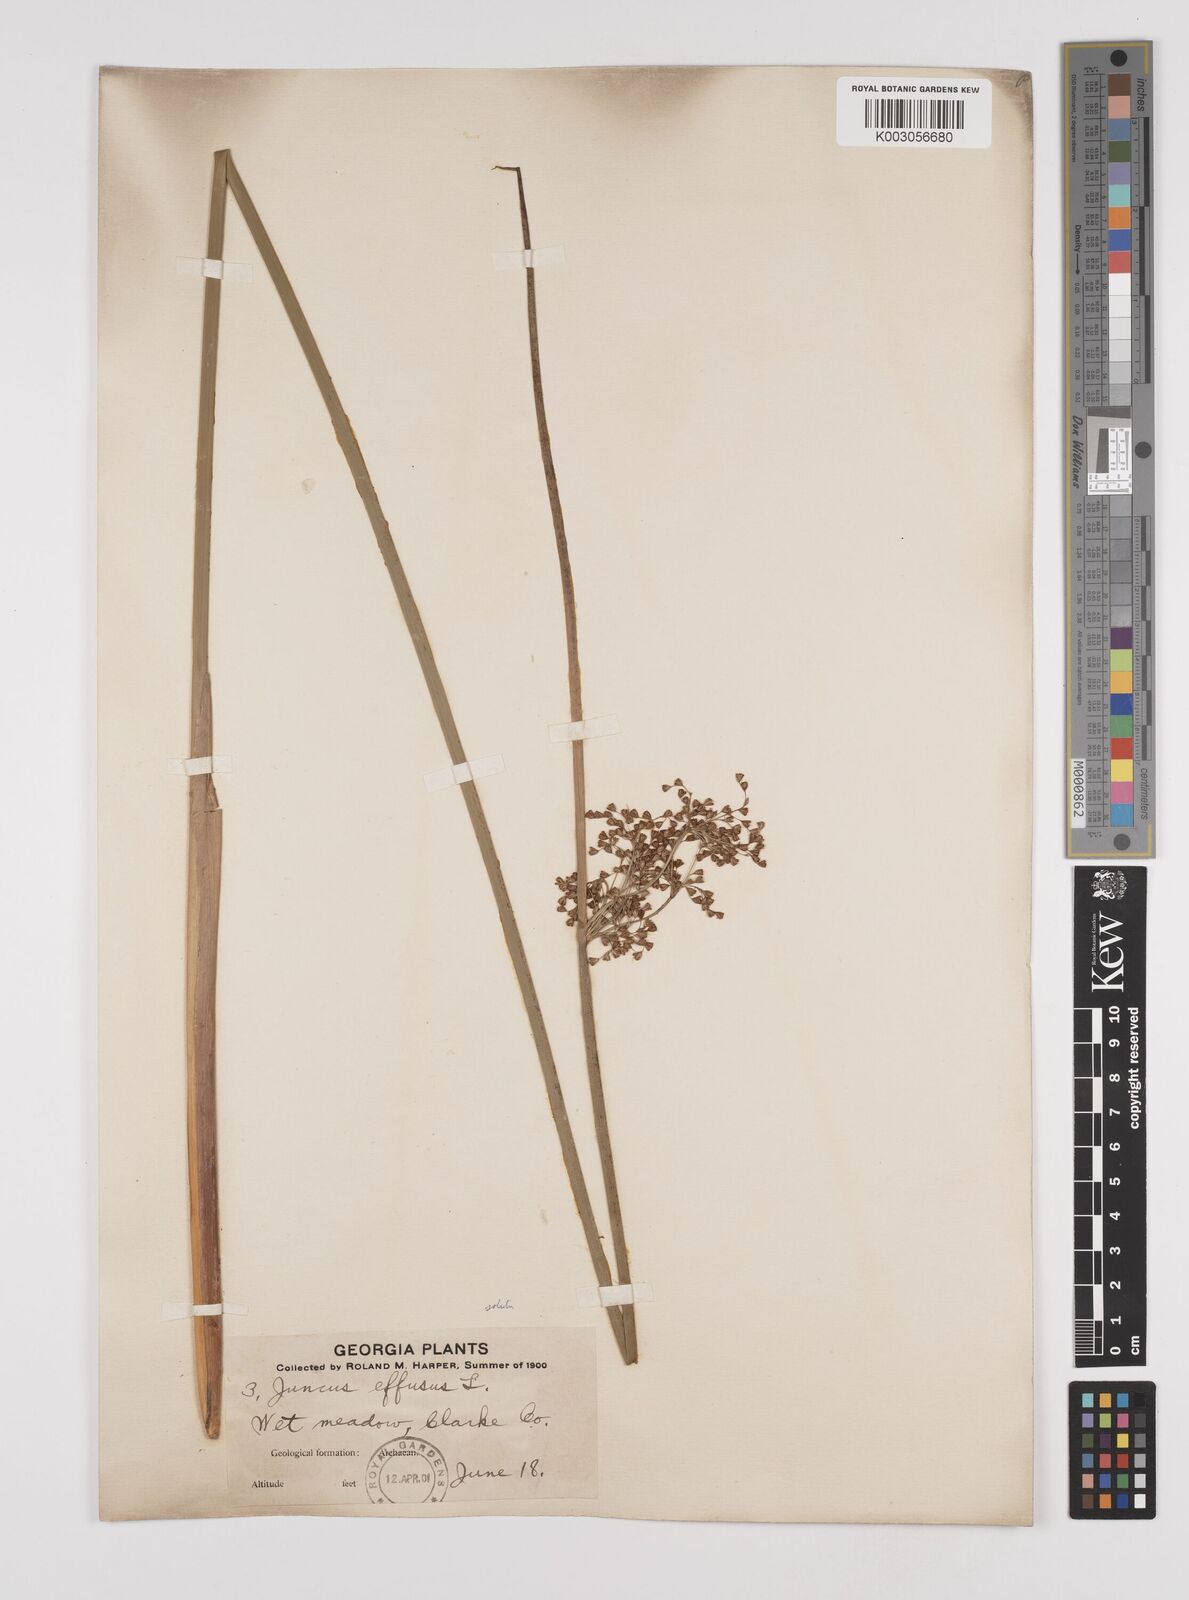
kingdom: Plantae
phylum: Tracheophyta
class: Liliopsida
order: Poales
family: Juncaceae
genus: Juncus
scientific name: Juncus effusus
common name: Soft rush
